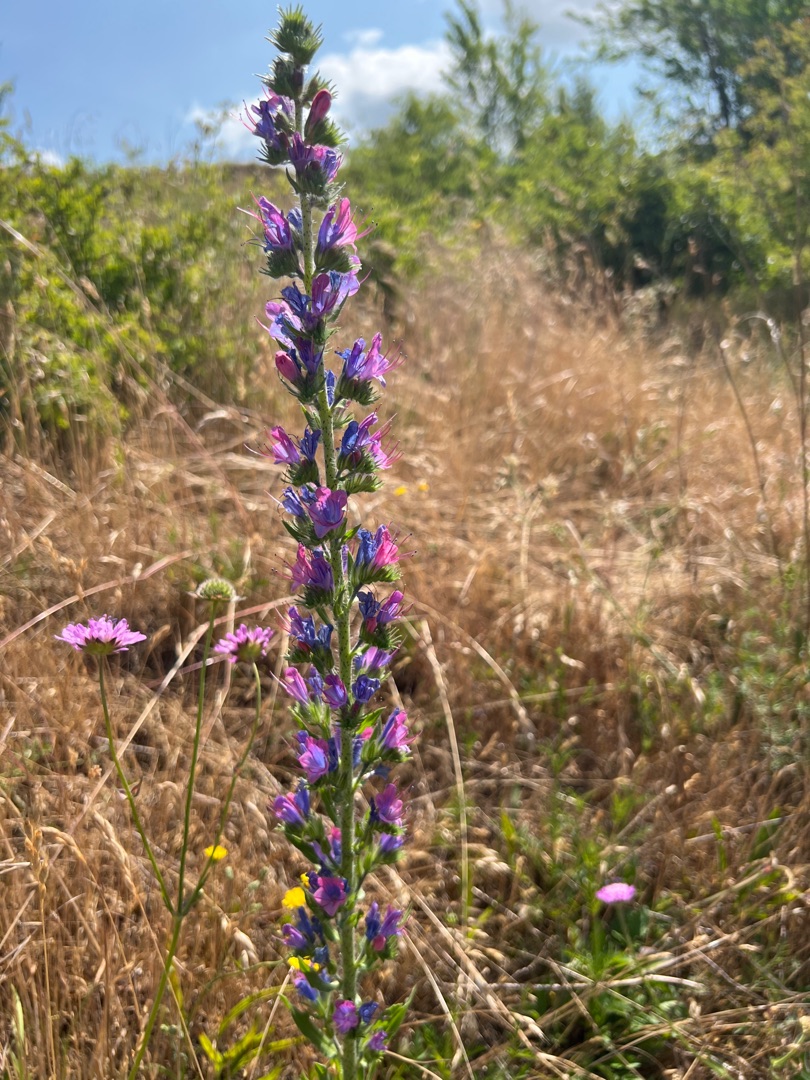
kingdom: Plantae
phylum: Tracheophyta
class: Magnoliopsida
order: Boraginales
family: Boraginaceae
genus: Echium
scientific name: Echium vulgare
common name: Slangehoved
